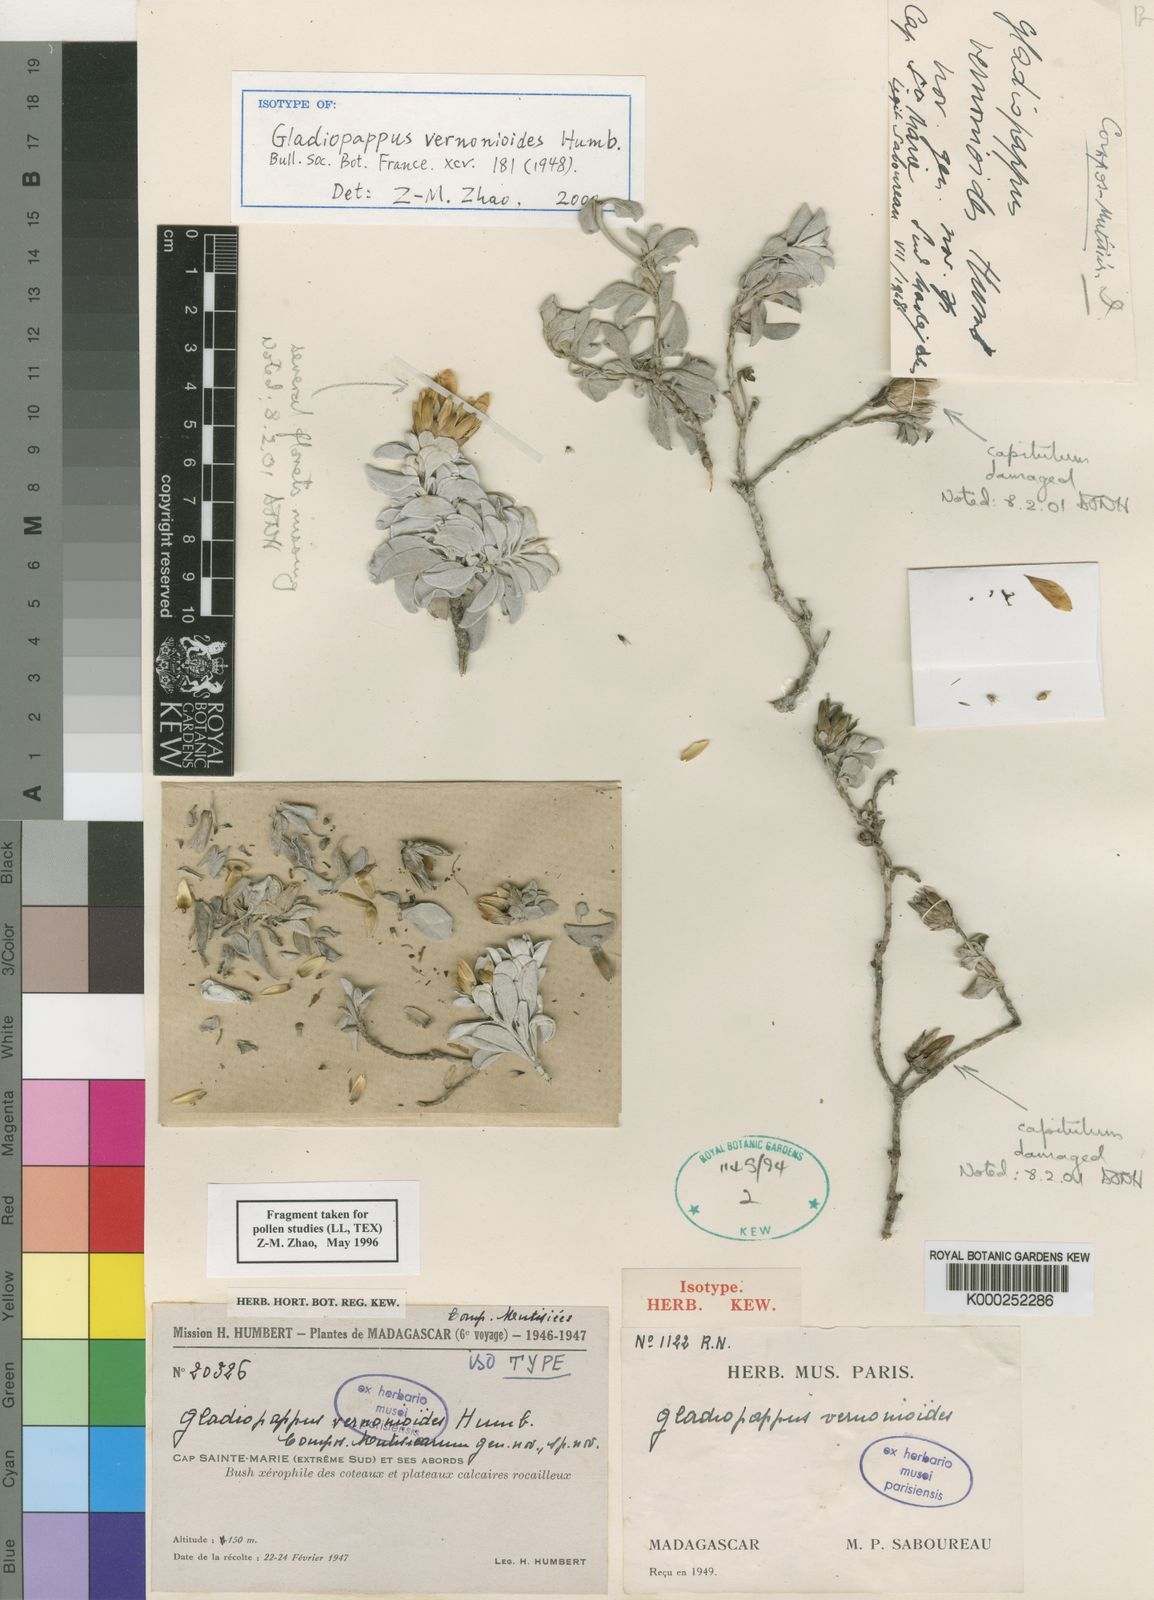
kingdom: Plantae
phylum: Tracheophyta
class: Magnoliopsida
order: Asterales
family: Asteraceae
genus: Gladiopappus
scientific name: Gladiopappus vernonioides
